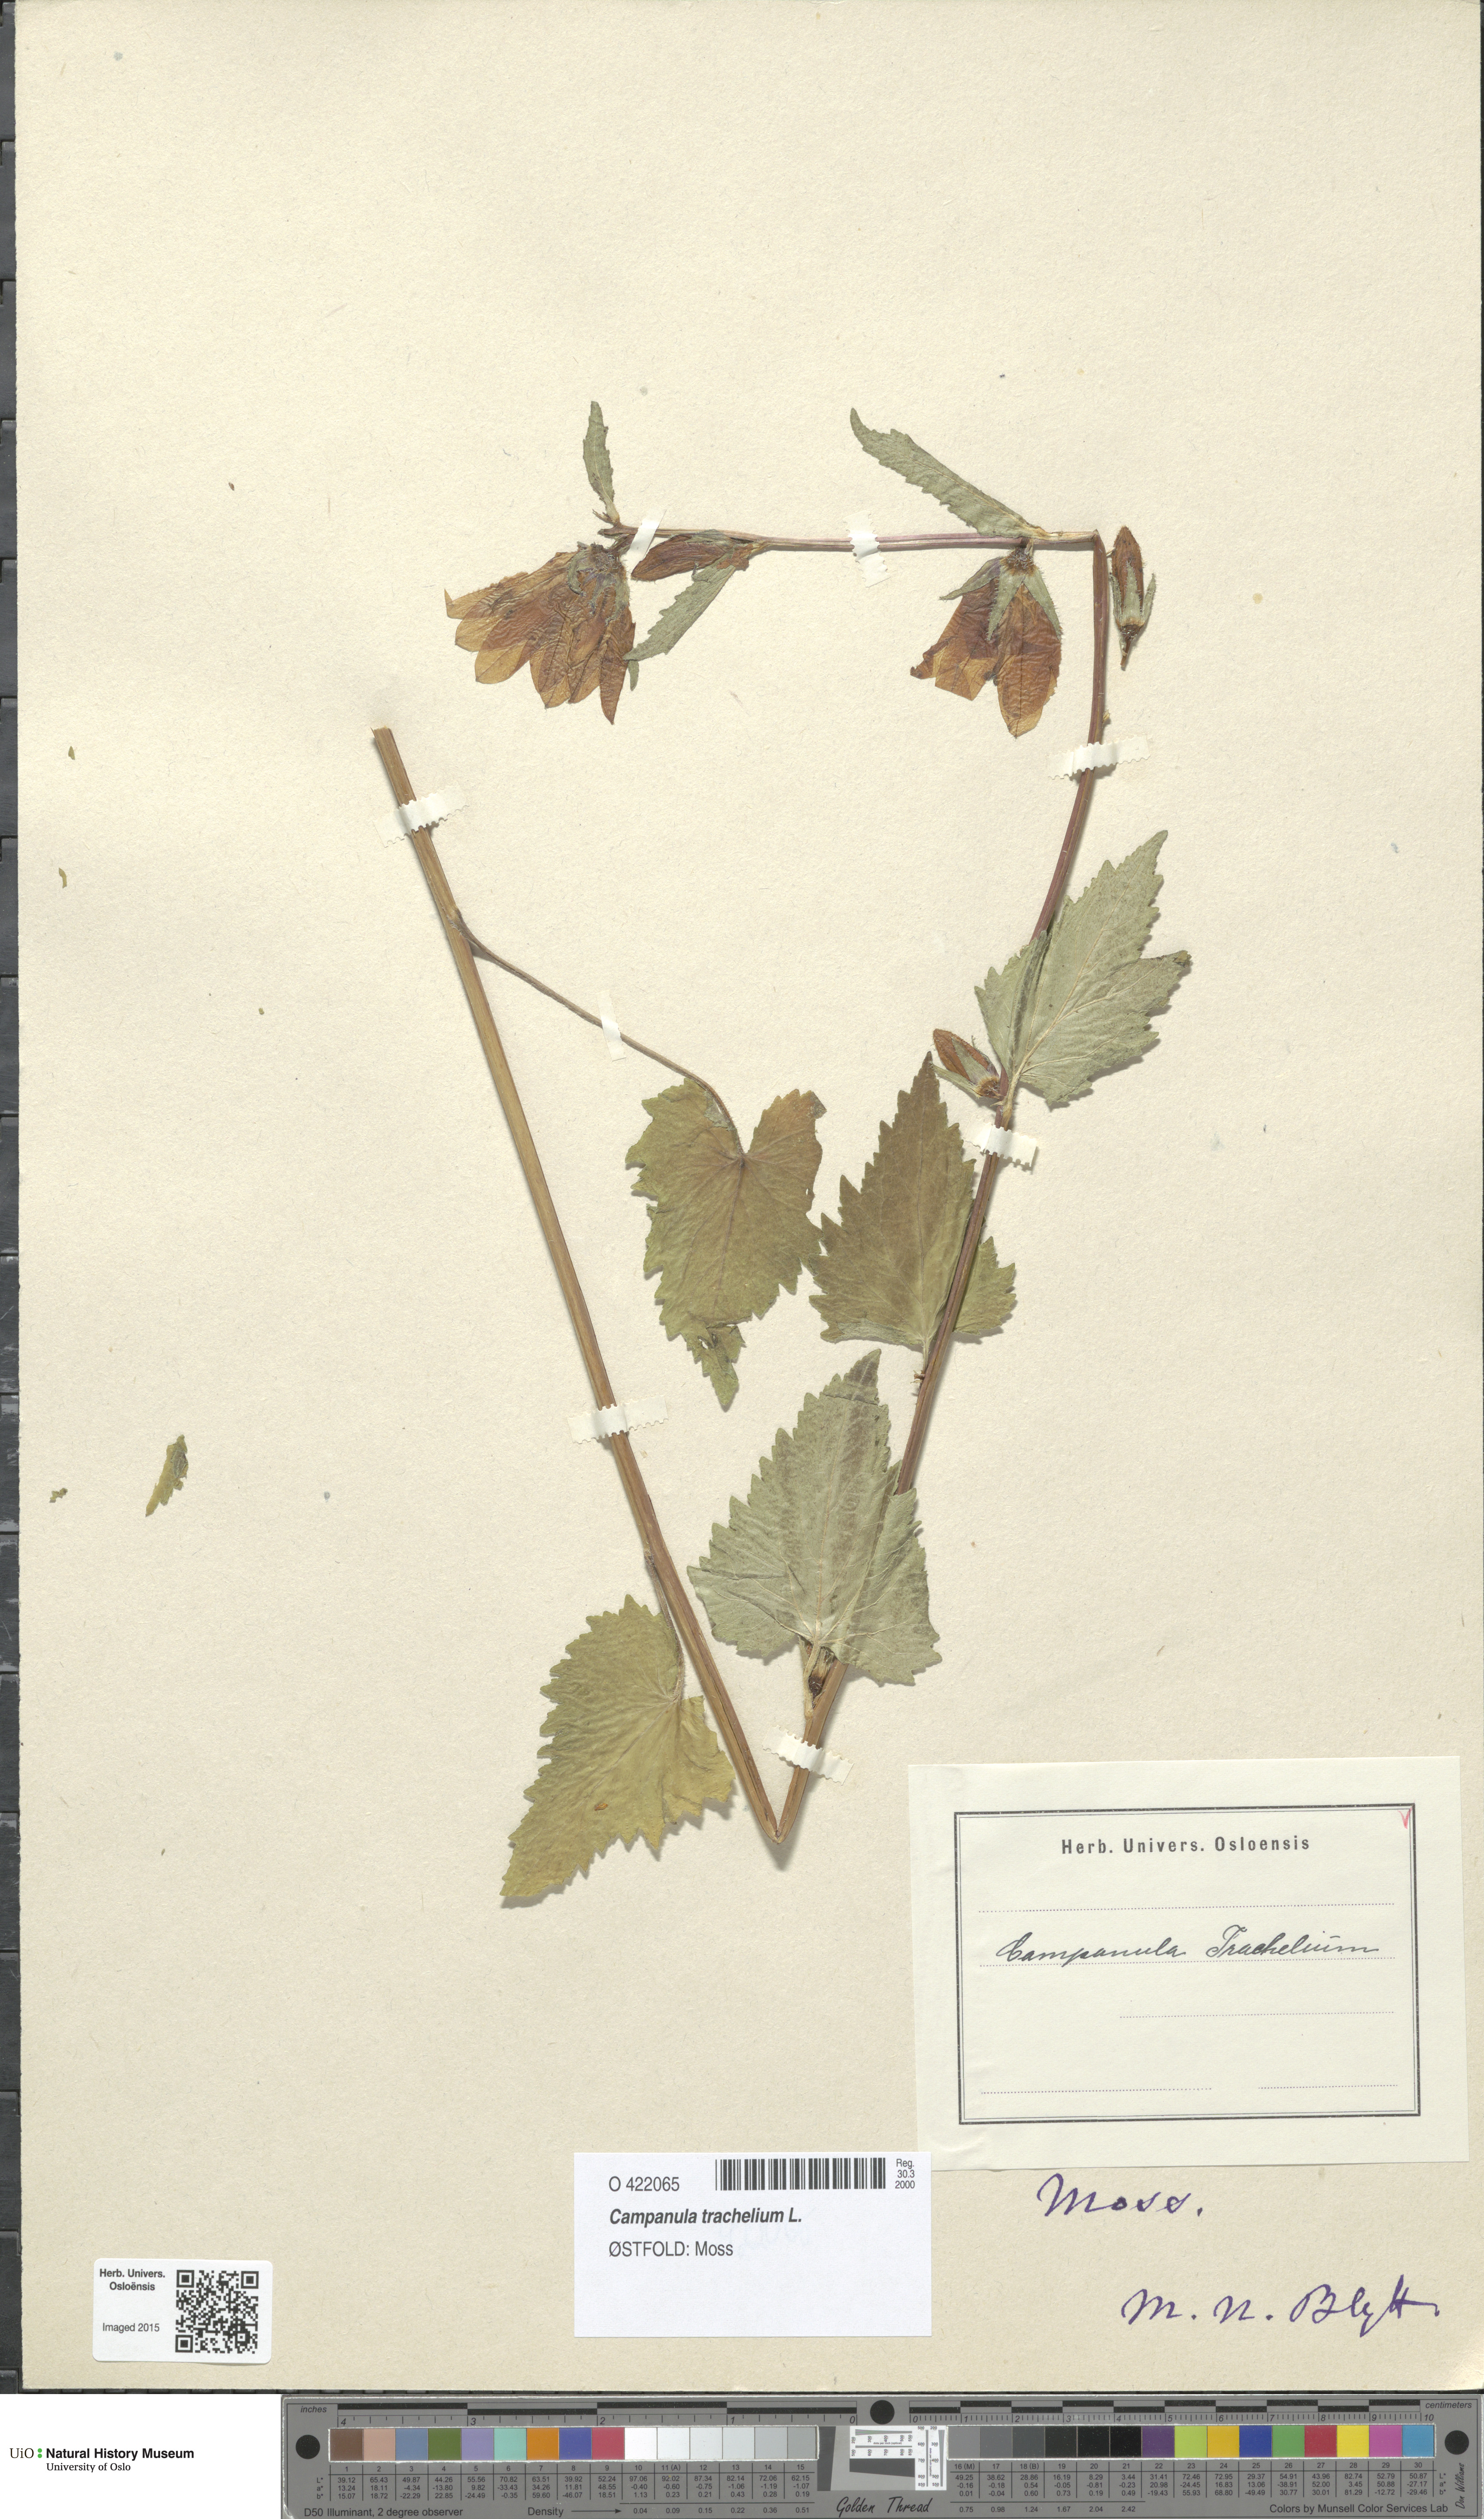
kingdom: Plantae
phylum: Tracheophyta
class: Magnoliopsida
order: Asterales
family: Campanulaceae
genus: Campanula
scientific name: Campanula trachelium
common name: Nettle-leaved bellflower
